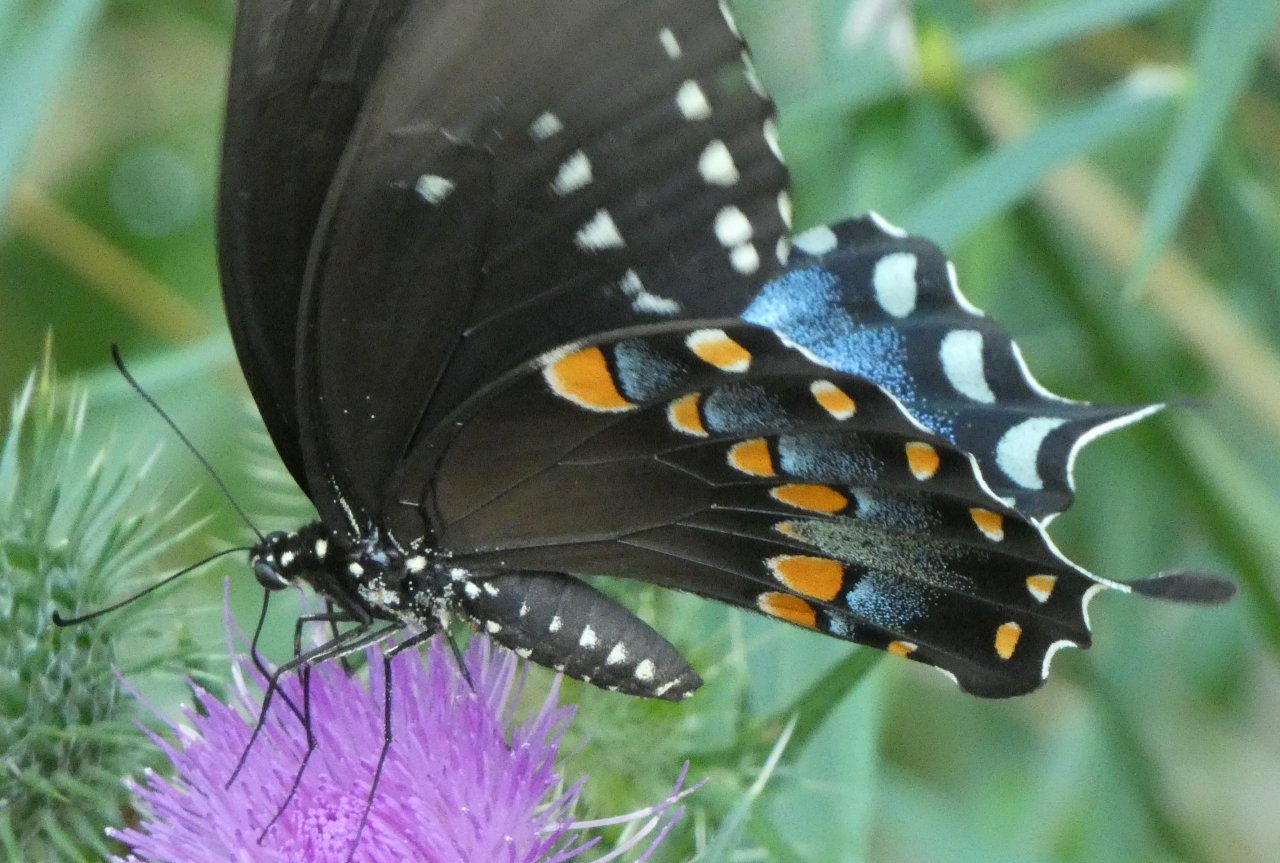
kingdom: Animalia
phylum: Arthropoda
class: Insecta
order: Lepidoptera
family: Papilionidae
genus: Pterourus
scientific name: Pterourus troilus
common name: Spicebush Swallowtail
